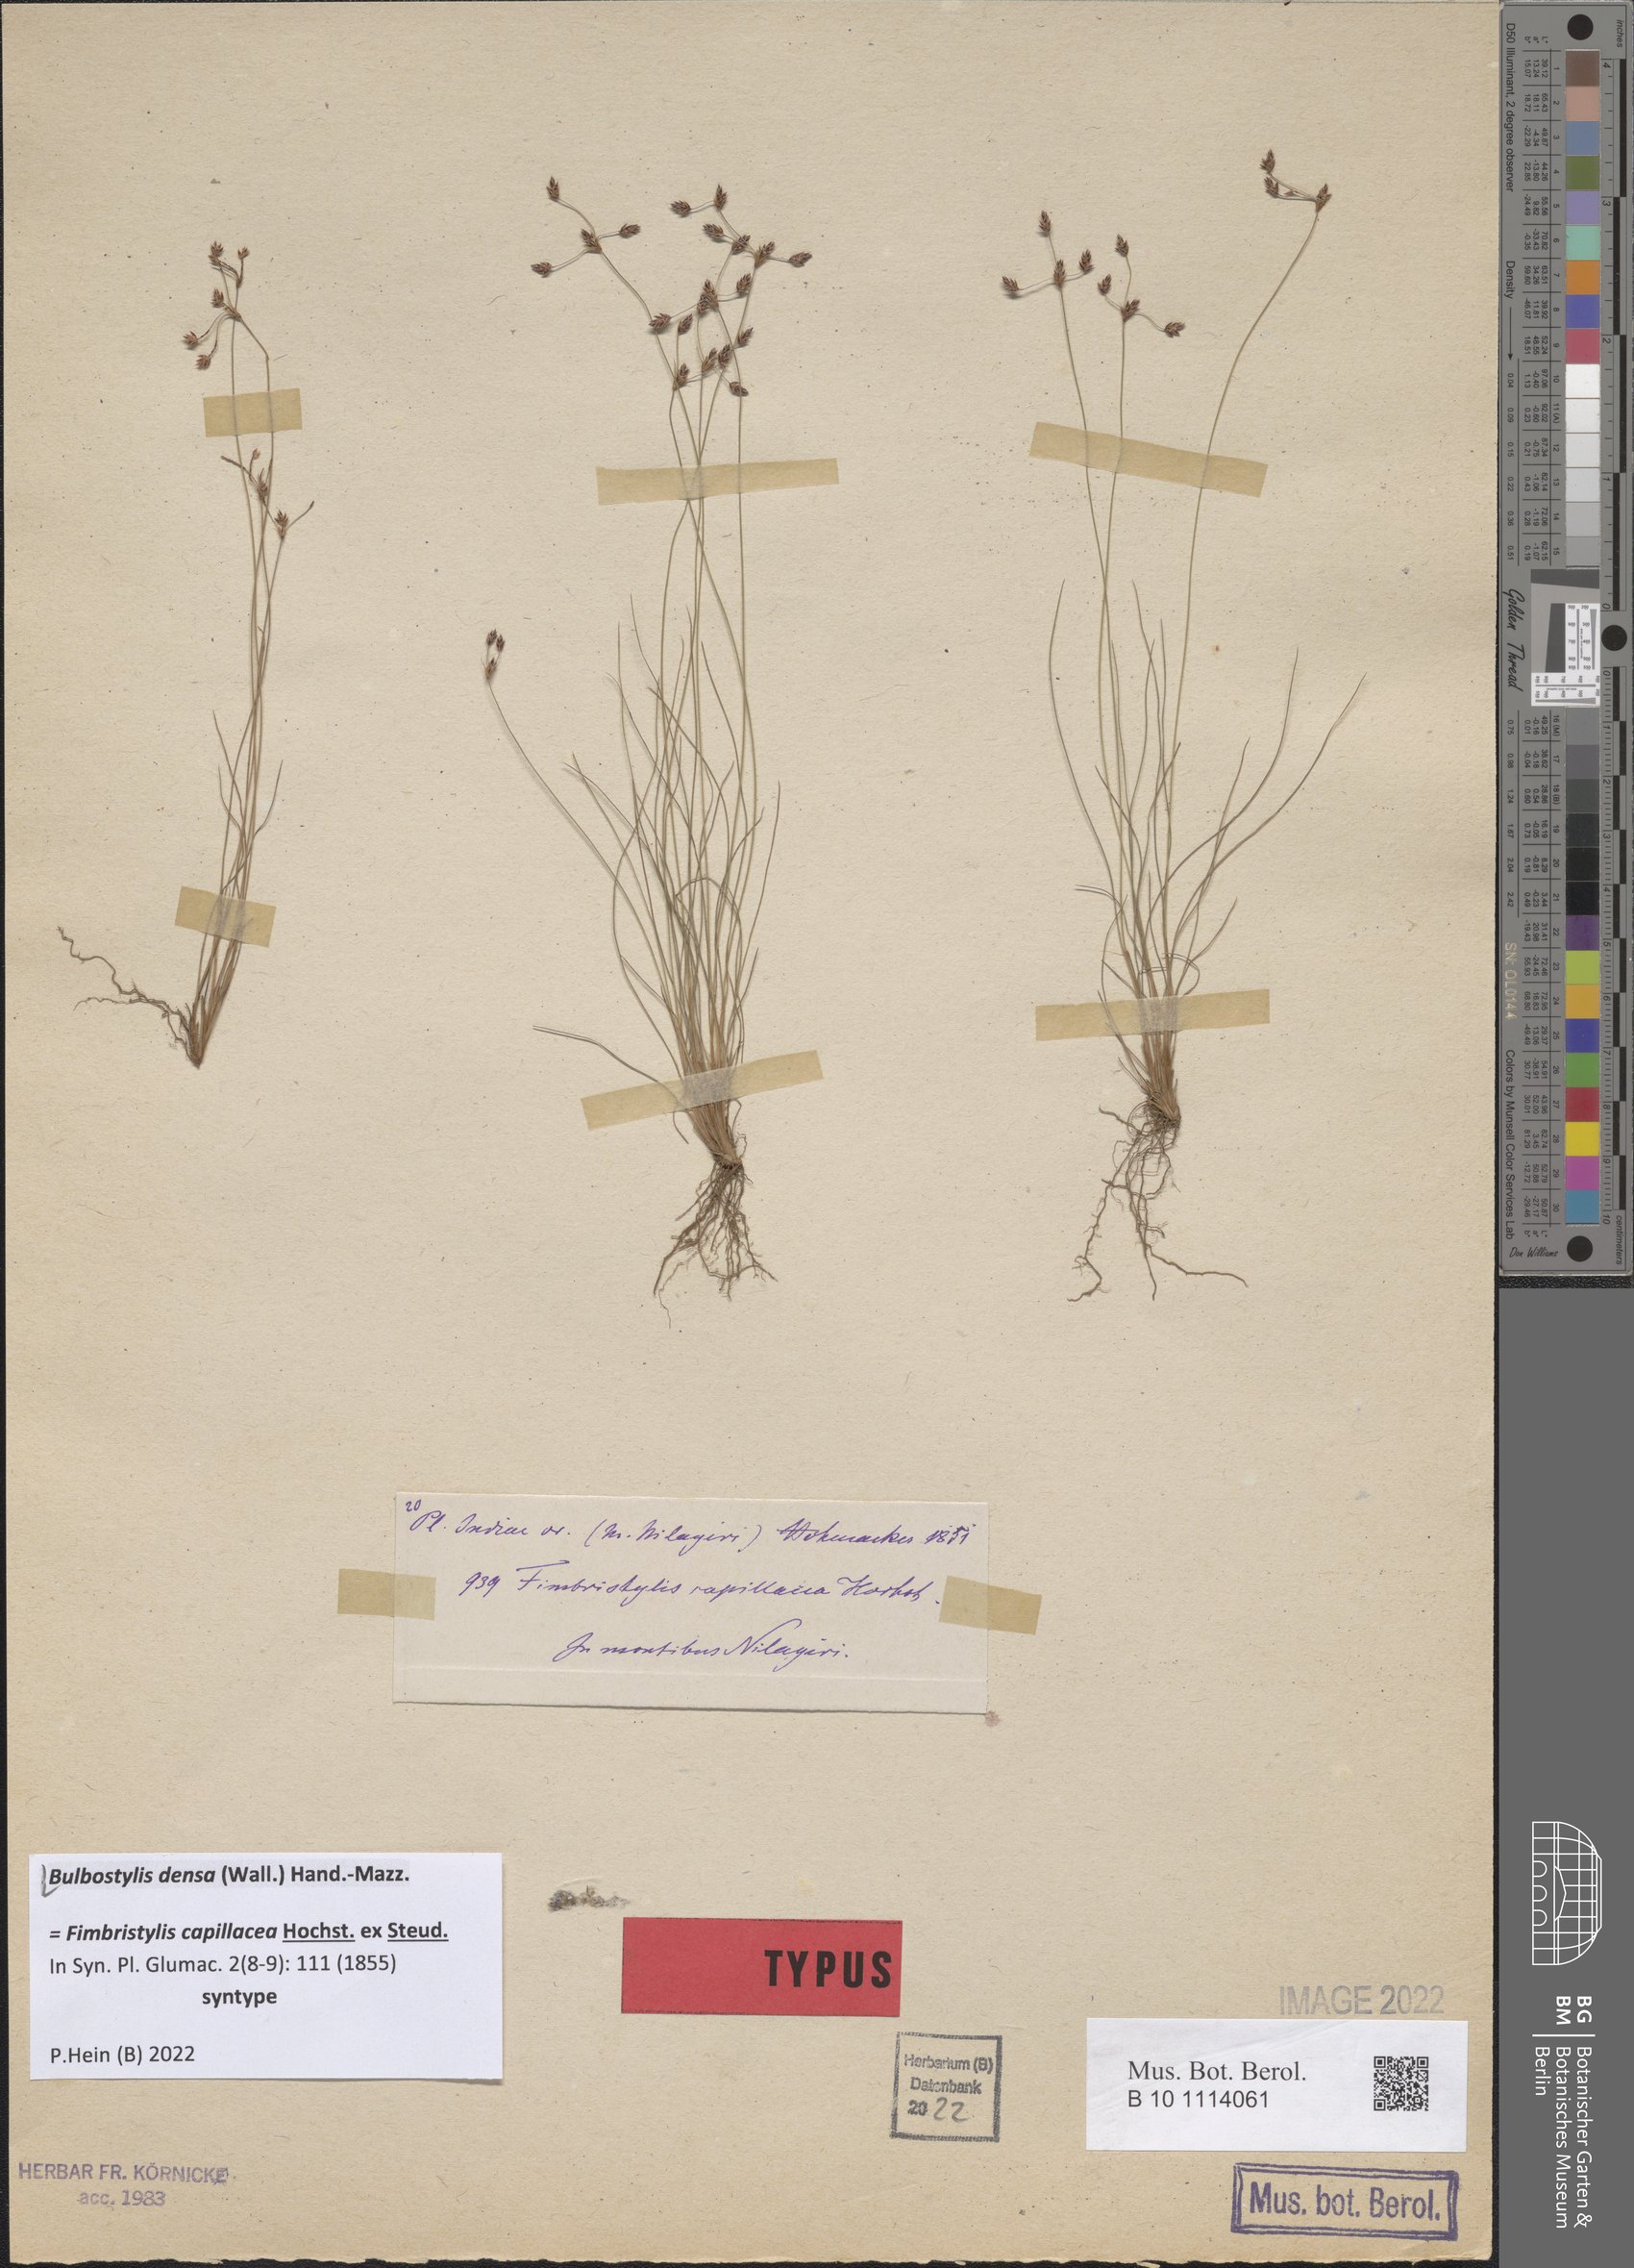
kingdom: Plantae
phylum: Tracheophyta
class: Liliopsida
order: Poales
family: Cyperaceae
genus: Bulbostylis
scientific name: Bulbostylis densa
